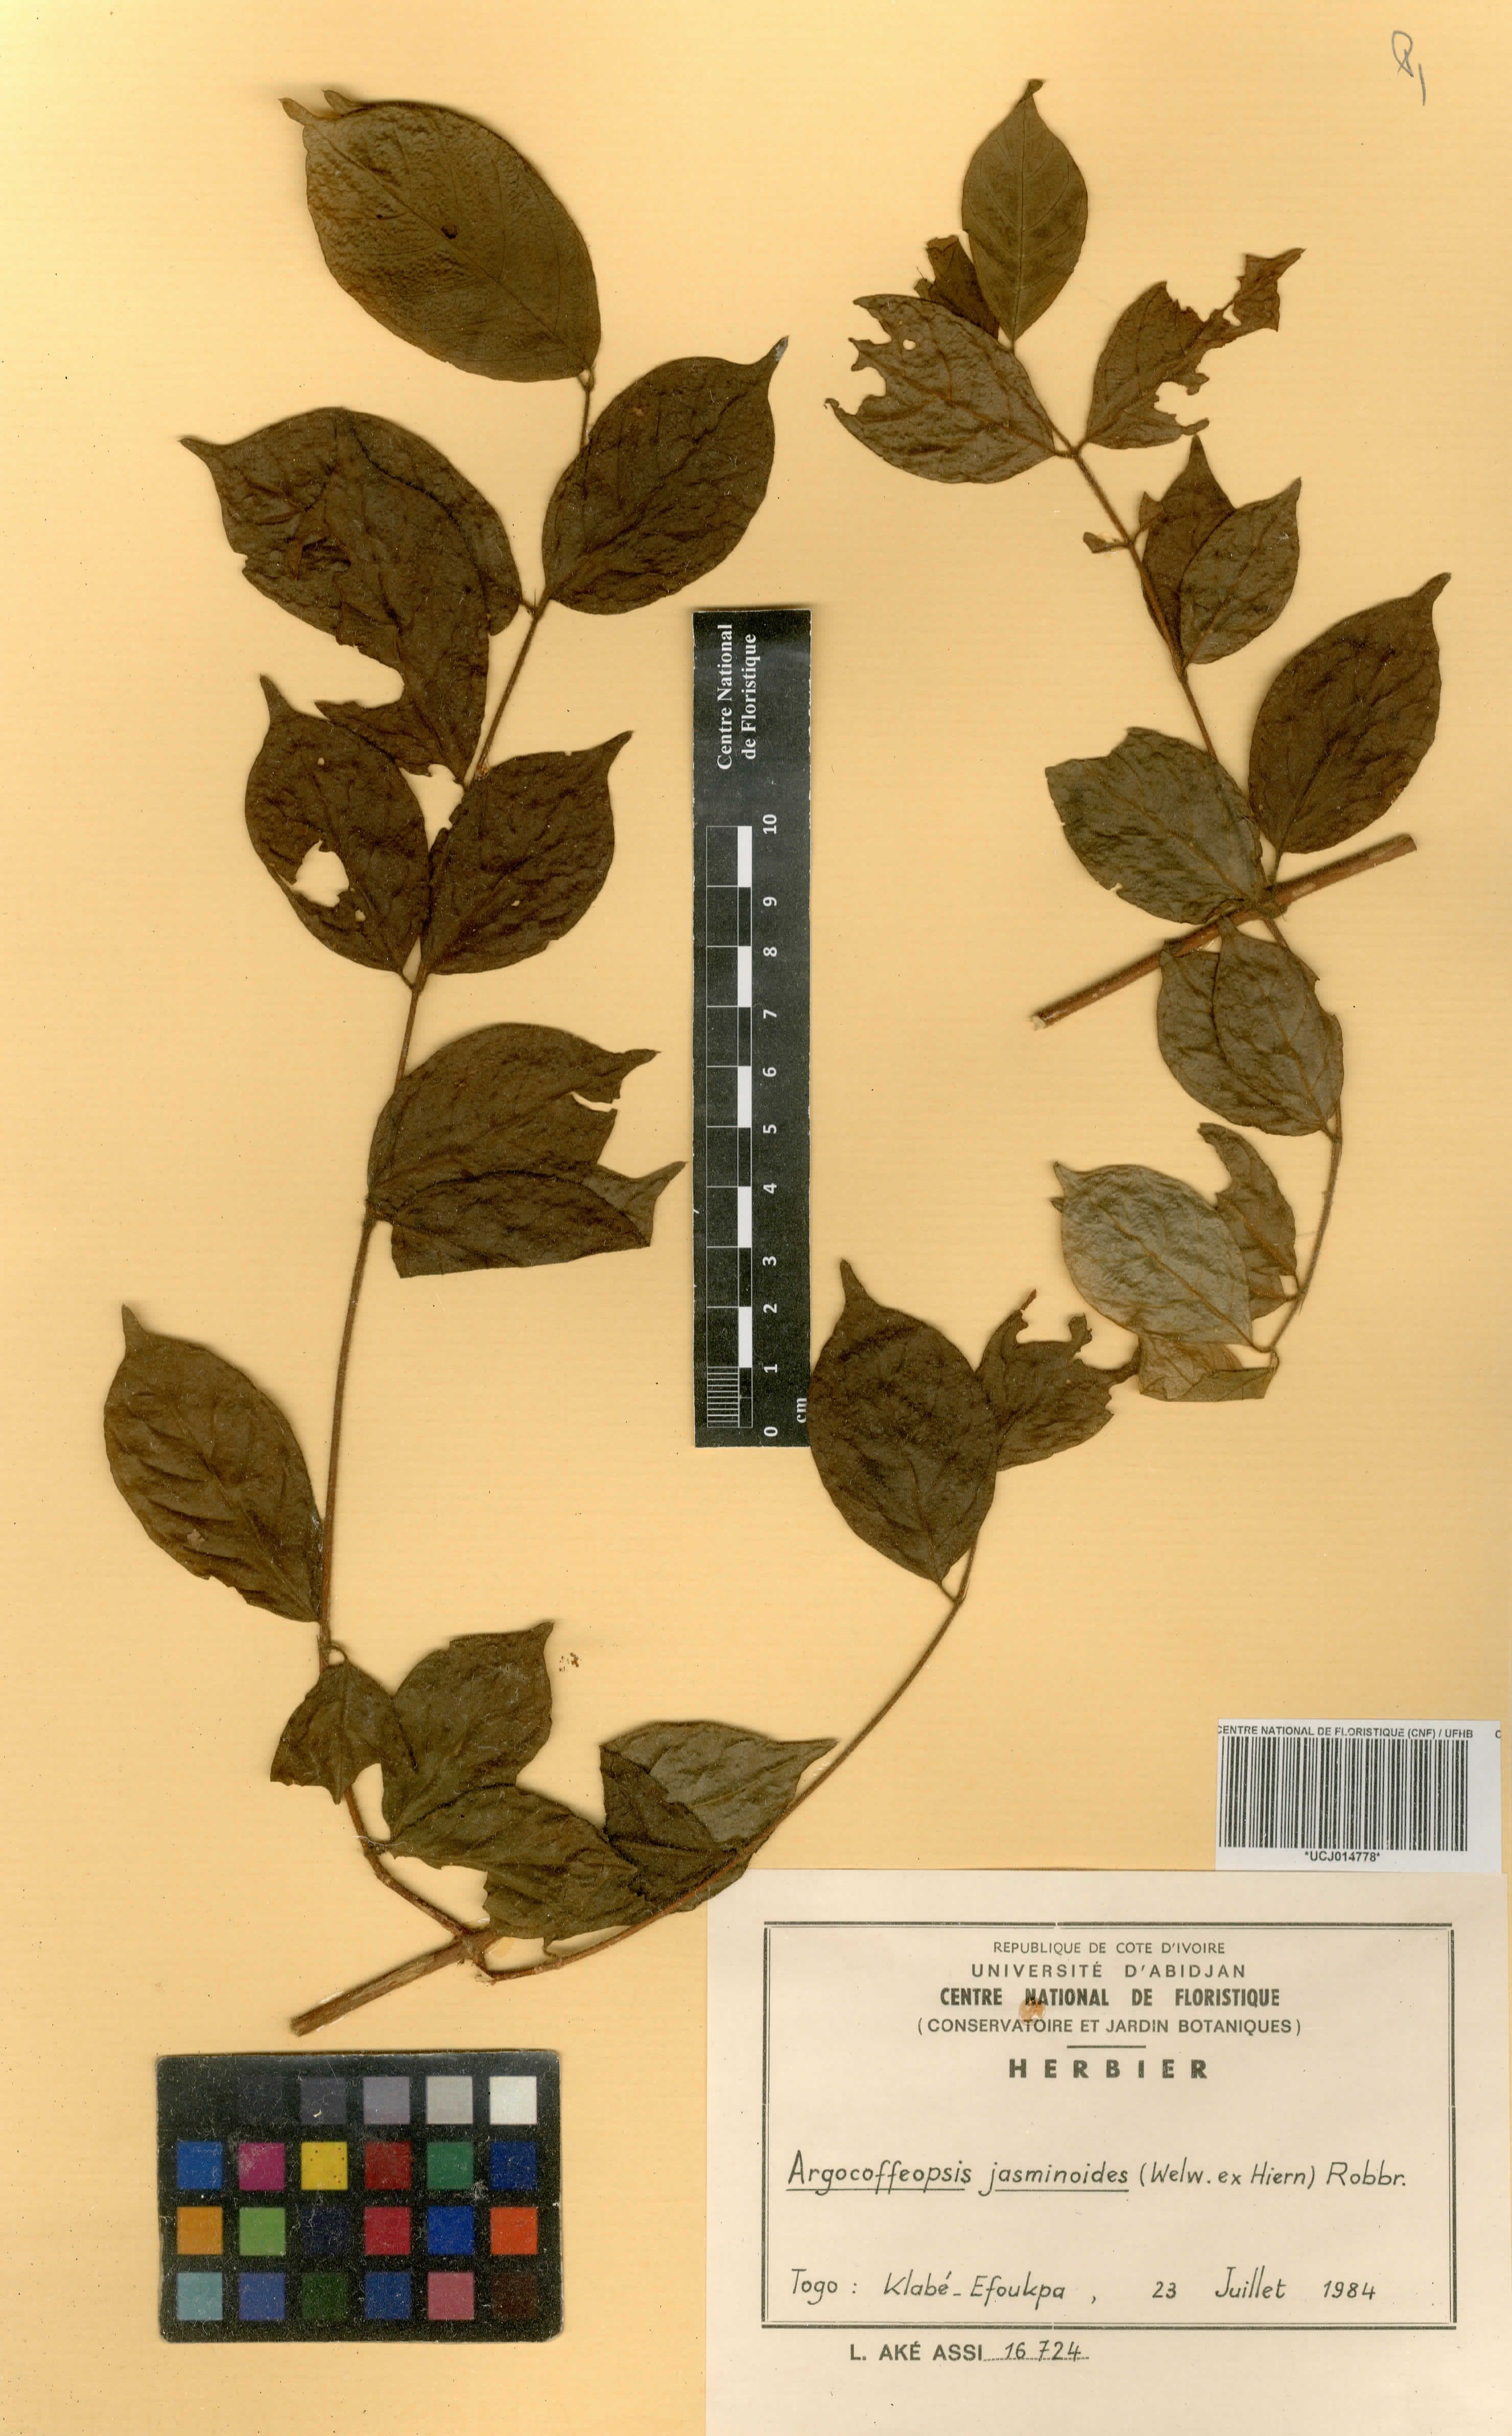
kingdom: Plantae
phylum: Tracheophyta
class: Magnoliopsida
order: Gentianales
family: Rubiaceae
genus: Argocoffeopsis
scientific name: Argocoffeopsis eketensis
